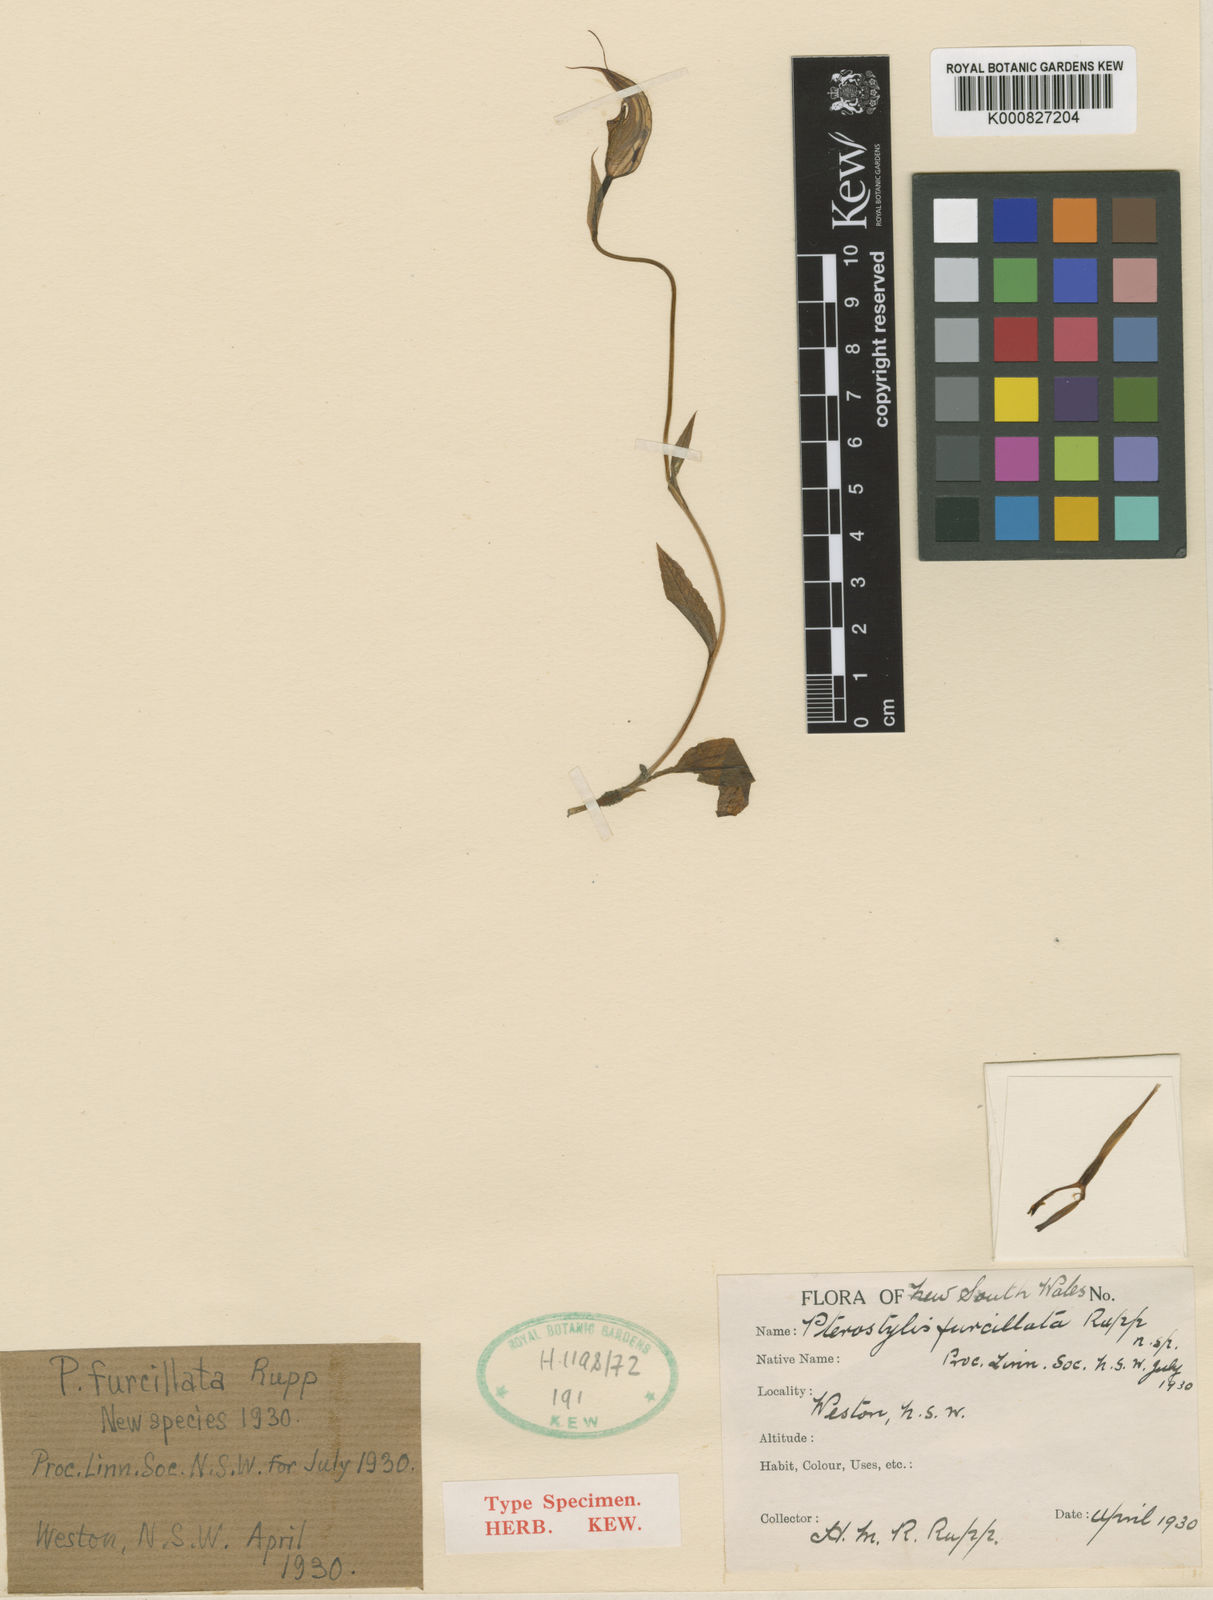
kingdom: Plantae
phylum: Tracheophyta
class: Liliopsida
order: Asparagales
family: Orchidaceae
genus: Pterostylis
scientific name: Pterostylis furcillata
